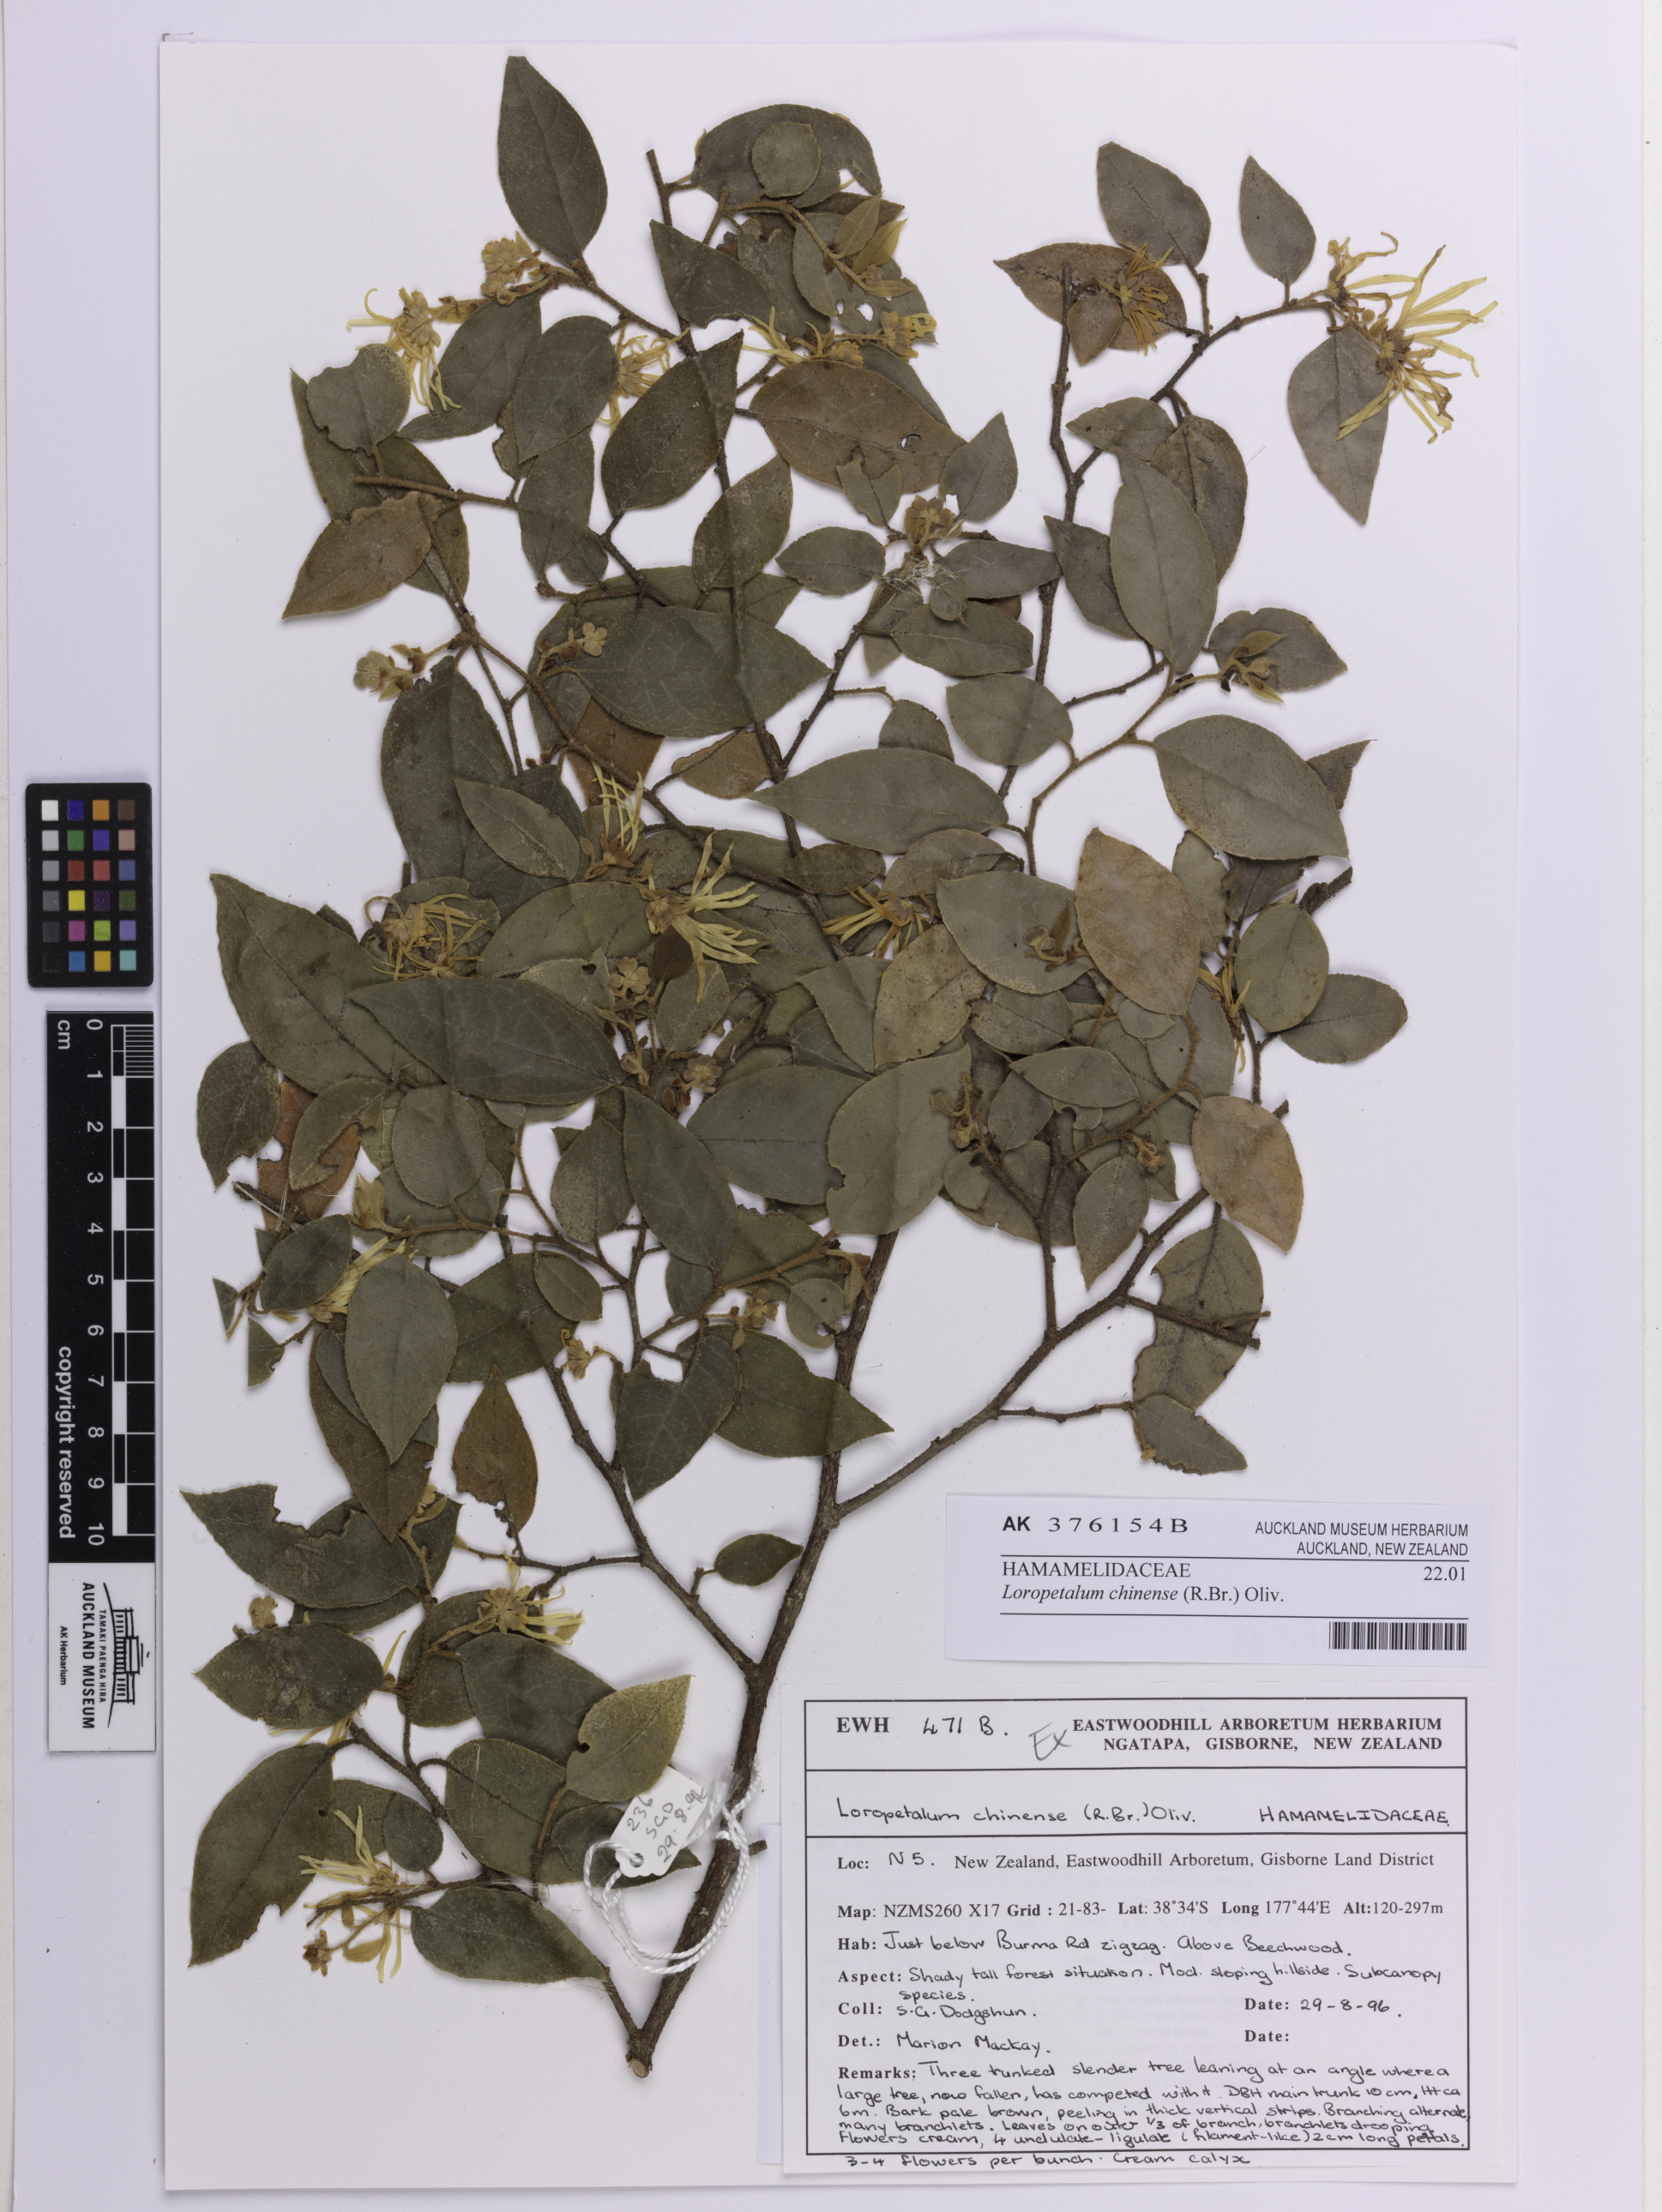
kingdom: Plantae
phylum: Tracheophyta
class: Magnoliopsida
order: Saxifragales
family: Hamamelidaceae
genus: Loropetalum
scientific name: Loropetalum chinense
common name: Chinese fringe flower
